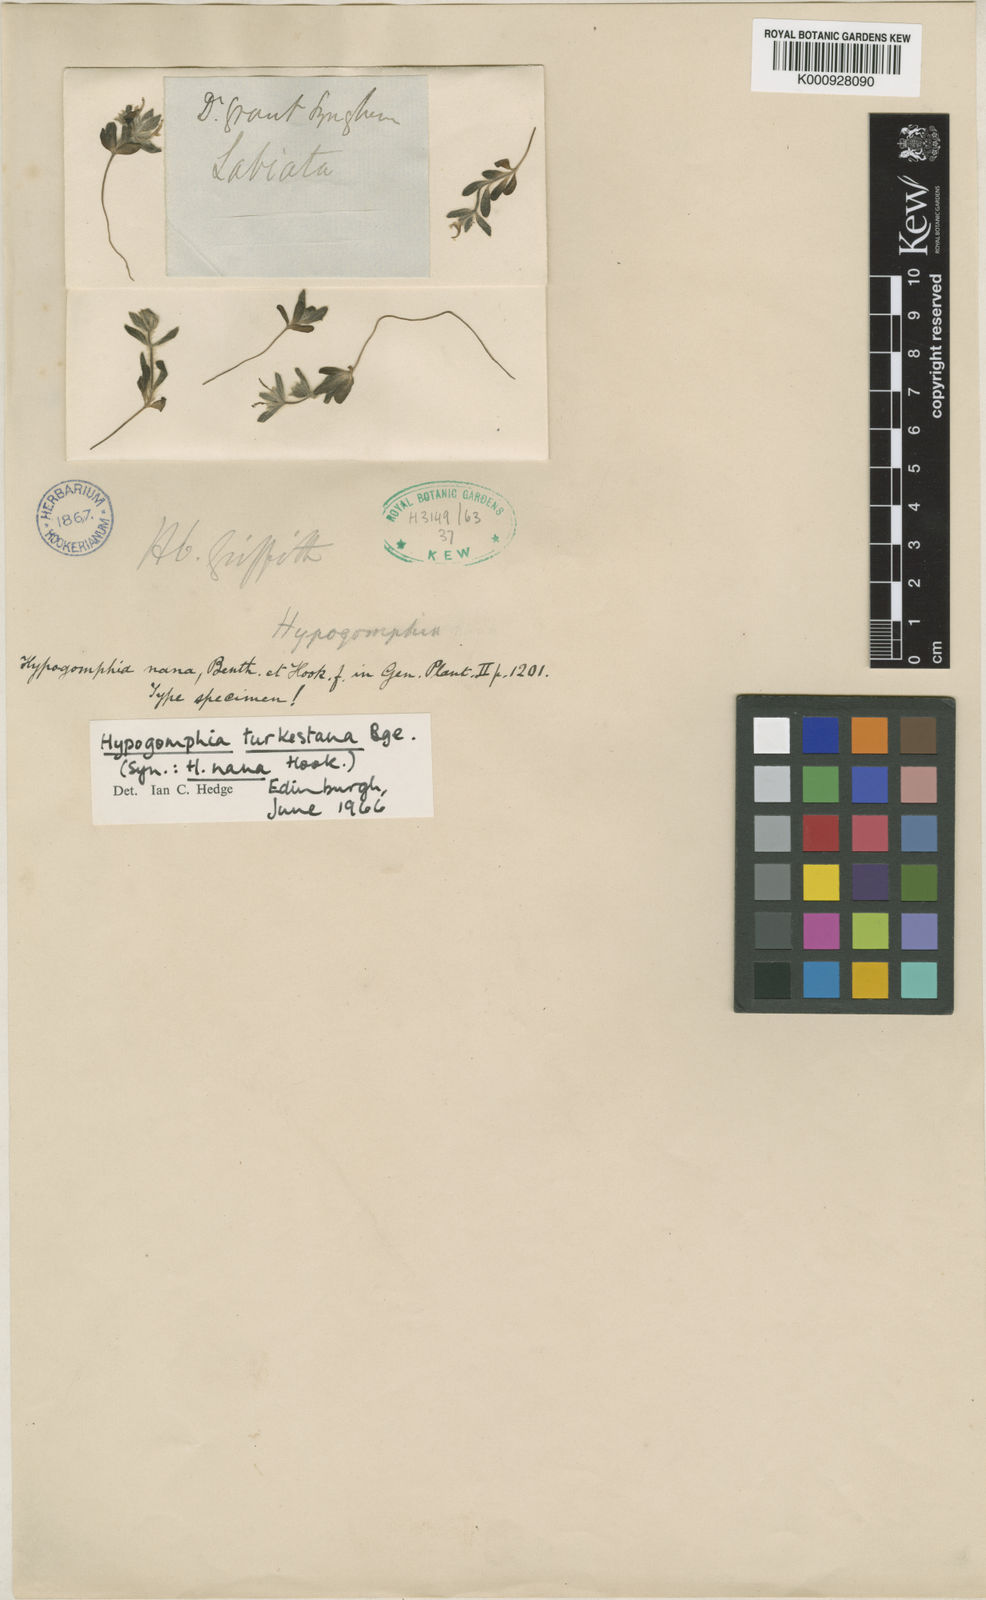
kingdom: Plantae
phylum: Tracheophyta
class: Magnoliopsida
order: Lamiales
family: Lamiaceae
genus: Hypogomphia
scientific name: Hypogomphia
